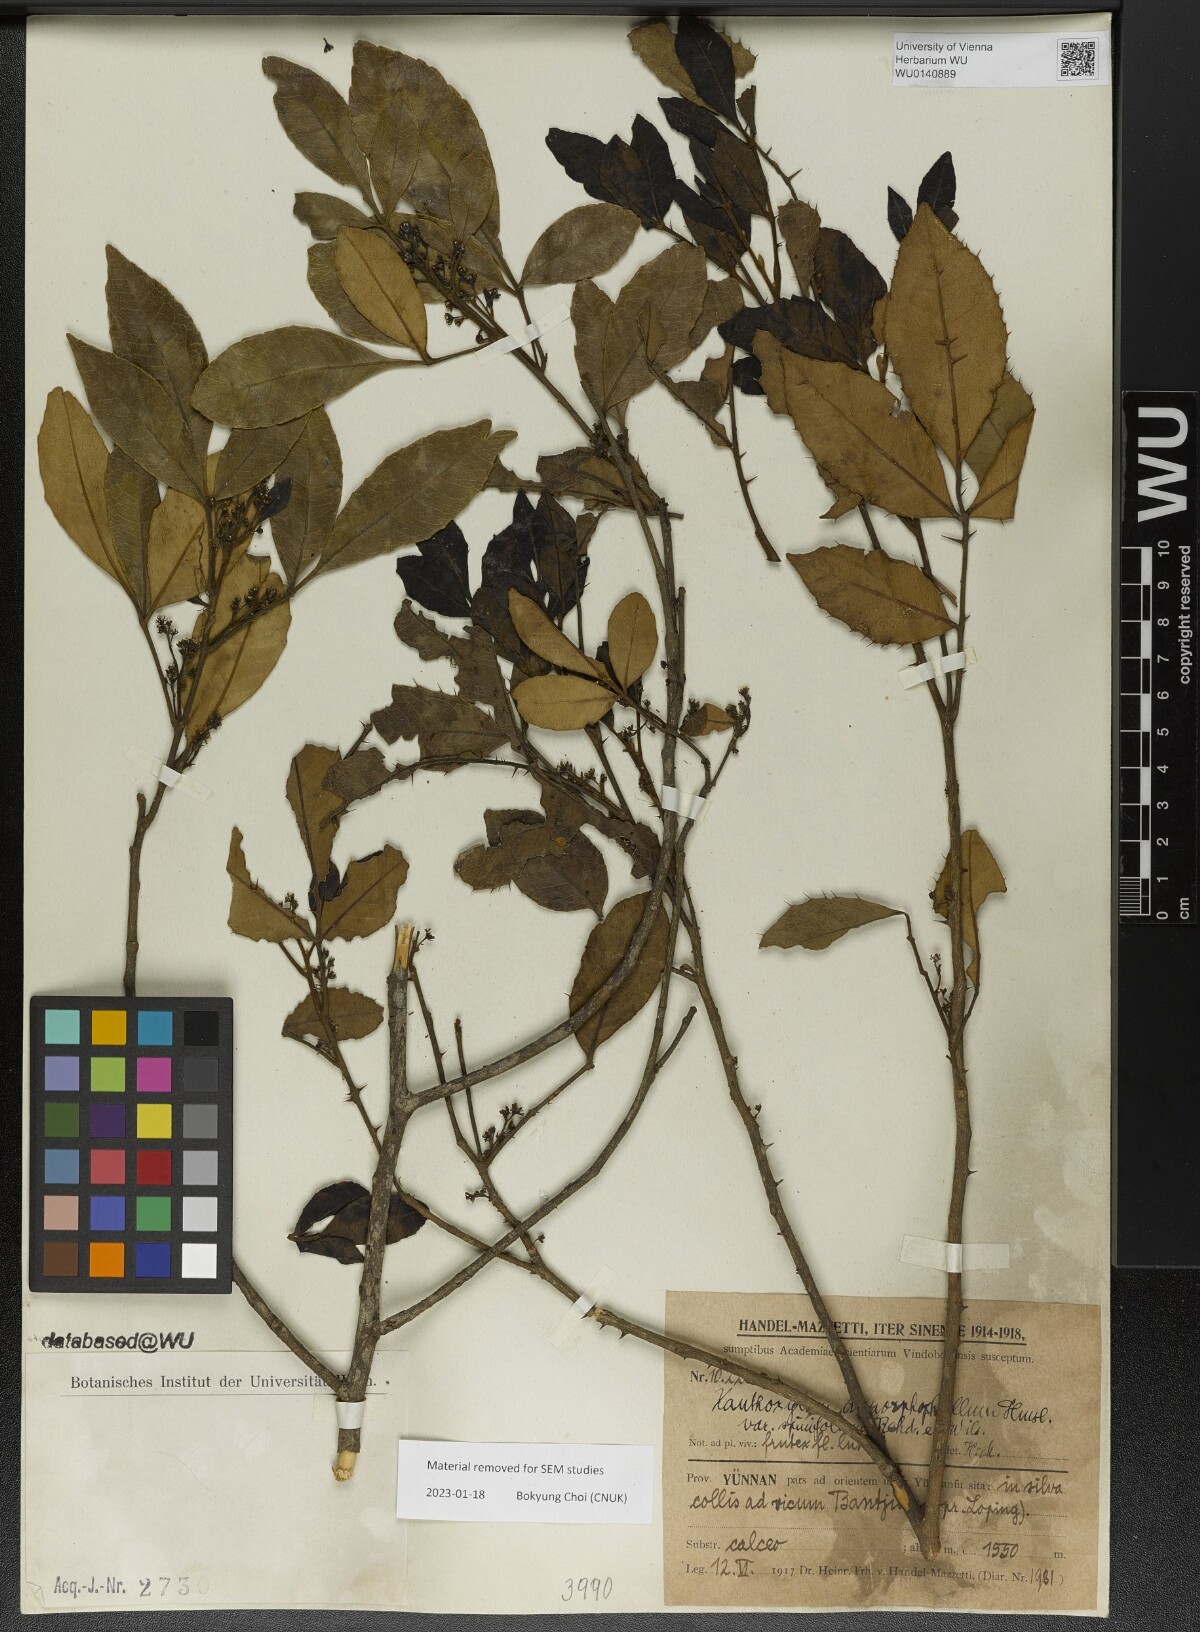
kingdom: Plantae
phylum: Tracheophyta
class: Magnoliopsida
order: Sapindales
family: Rutaceae
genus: Zanthoxylum
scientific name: Zanthoxylum dimorphophyllum
